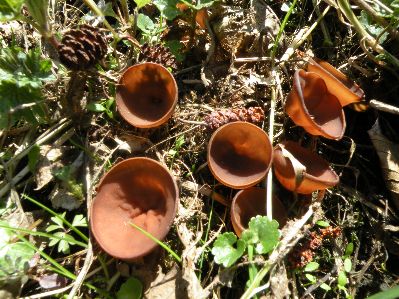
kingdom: Fungi
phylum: Ascomycota
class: Leotiomycetes
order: Helotiales
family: Sclerotiniaceae
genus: Dumontinia
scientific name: Dumontinia tuberosa
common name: anemone-knoldskive
